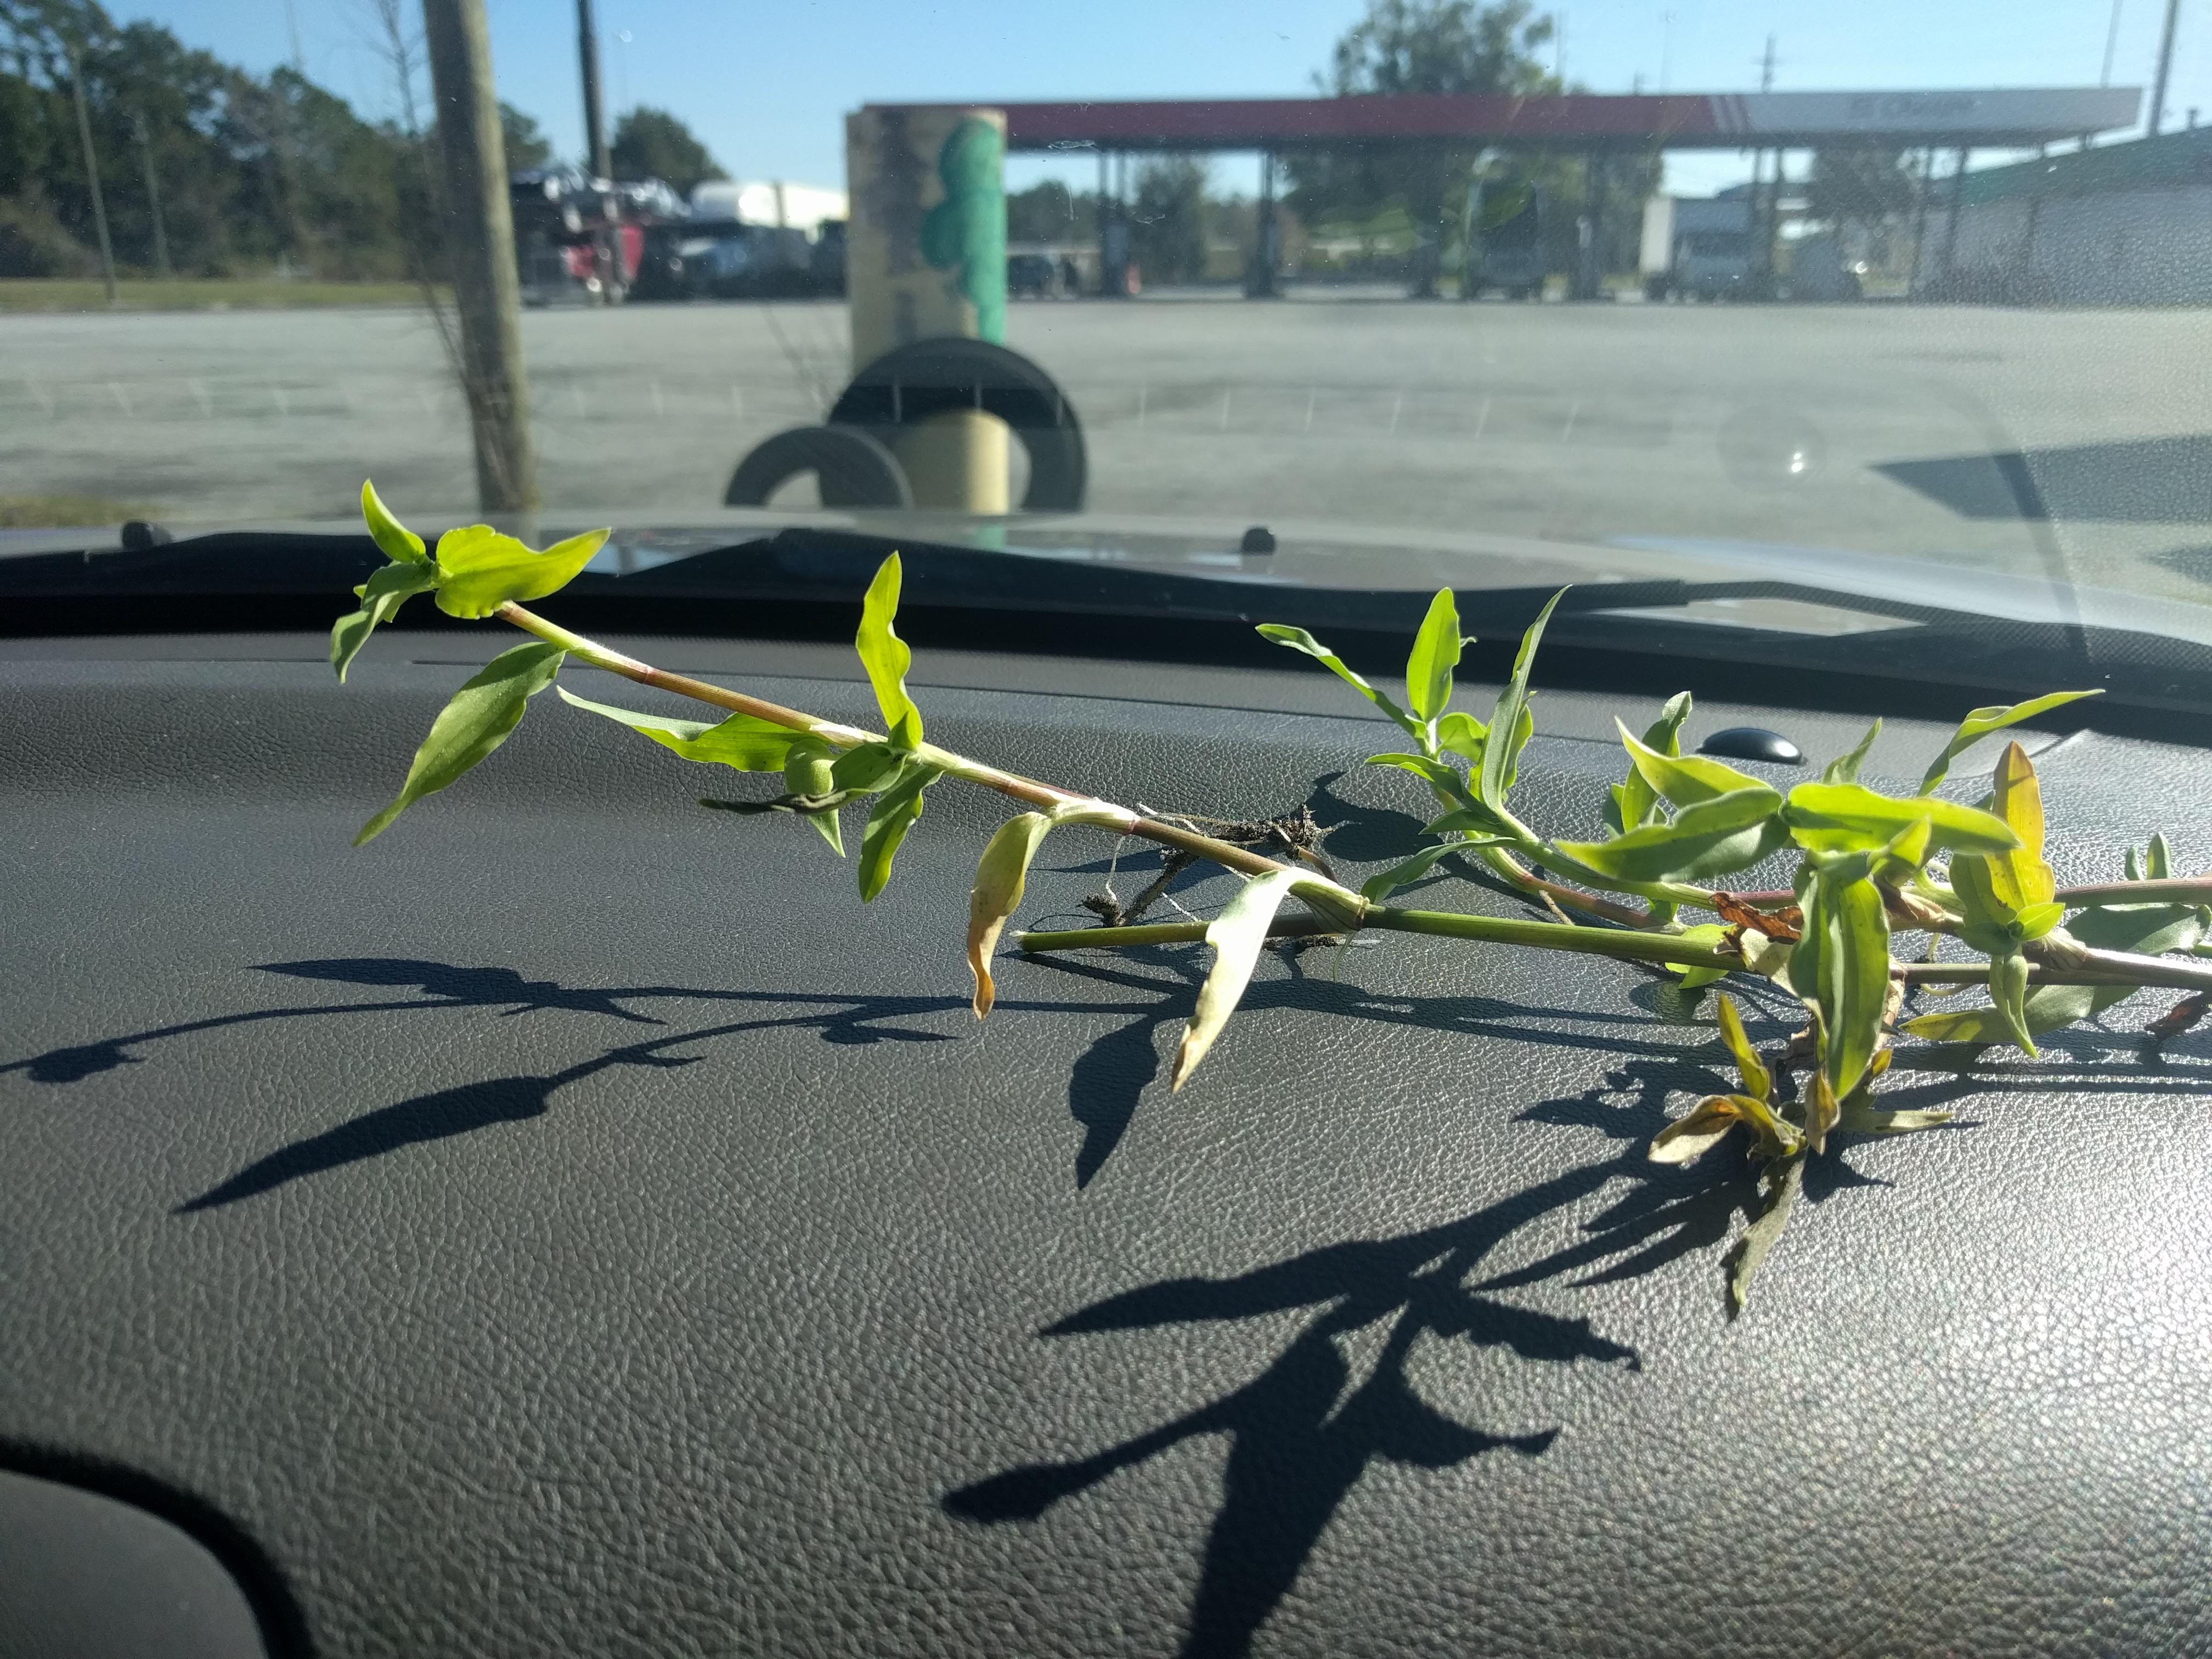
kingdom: Plantae
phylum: Tracheophyta
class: Liliopsida
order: Commelinales
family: Commelinaceae
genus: Commelina
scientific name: Commelina diffusa
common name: Dayflower
